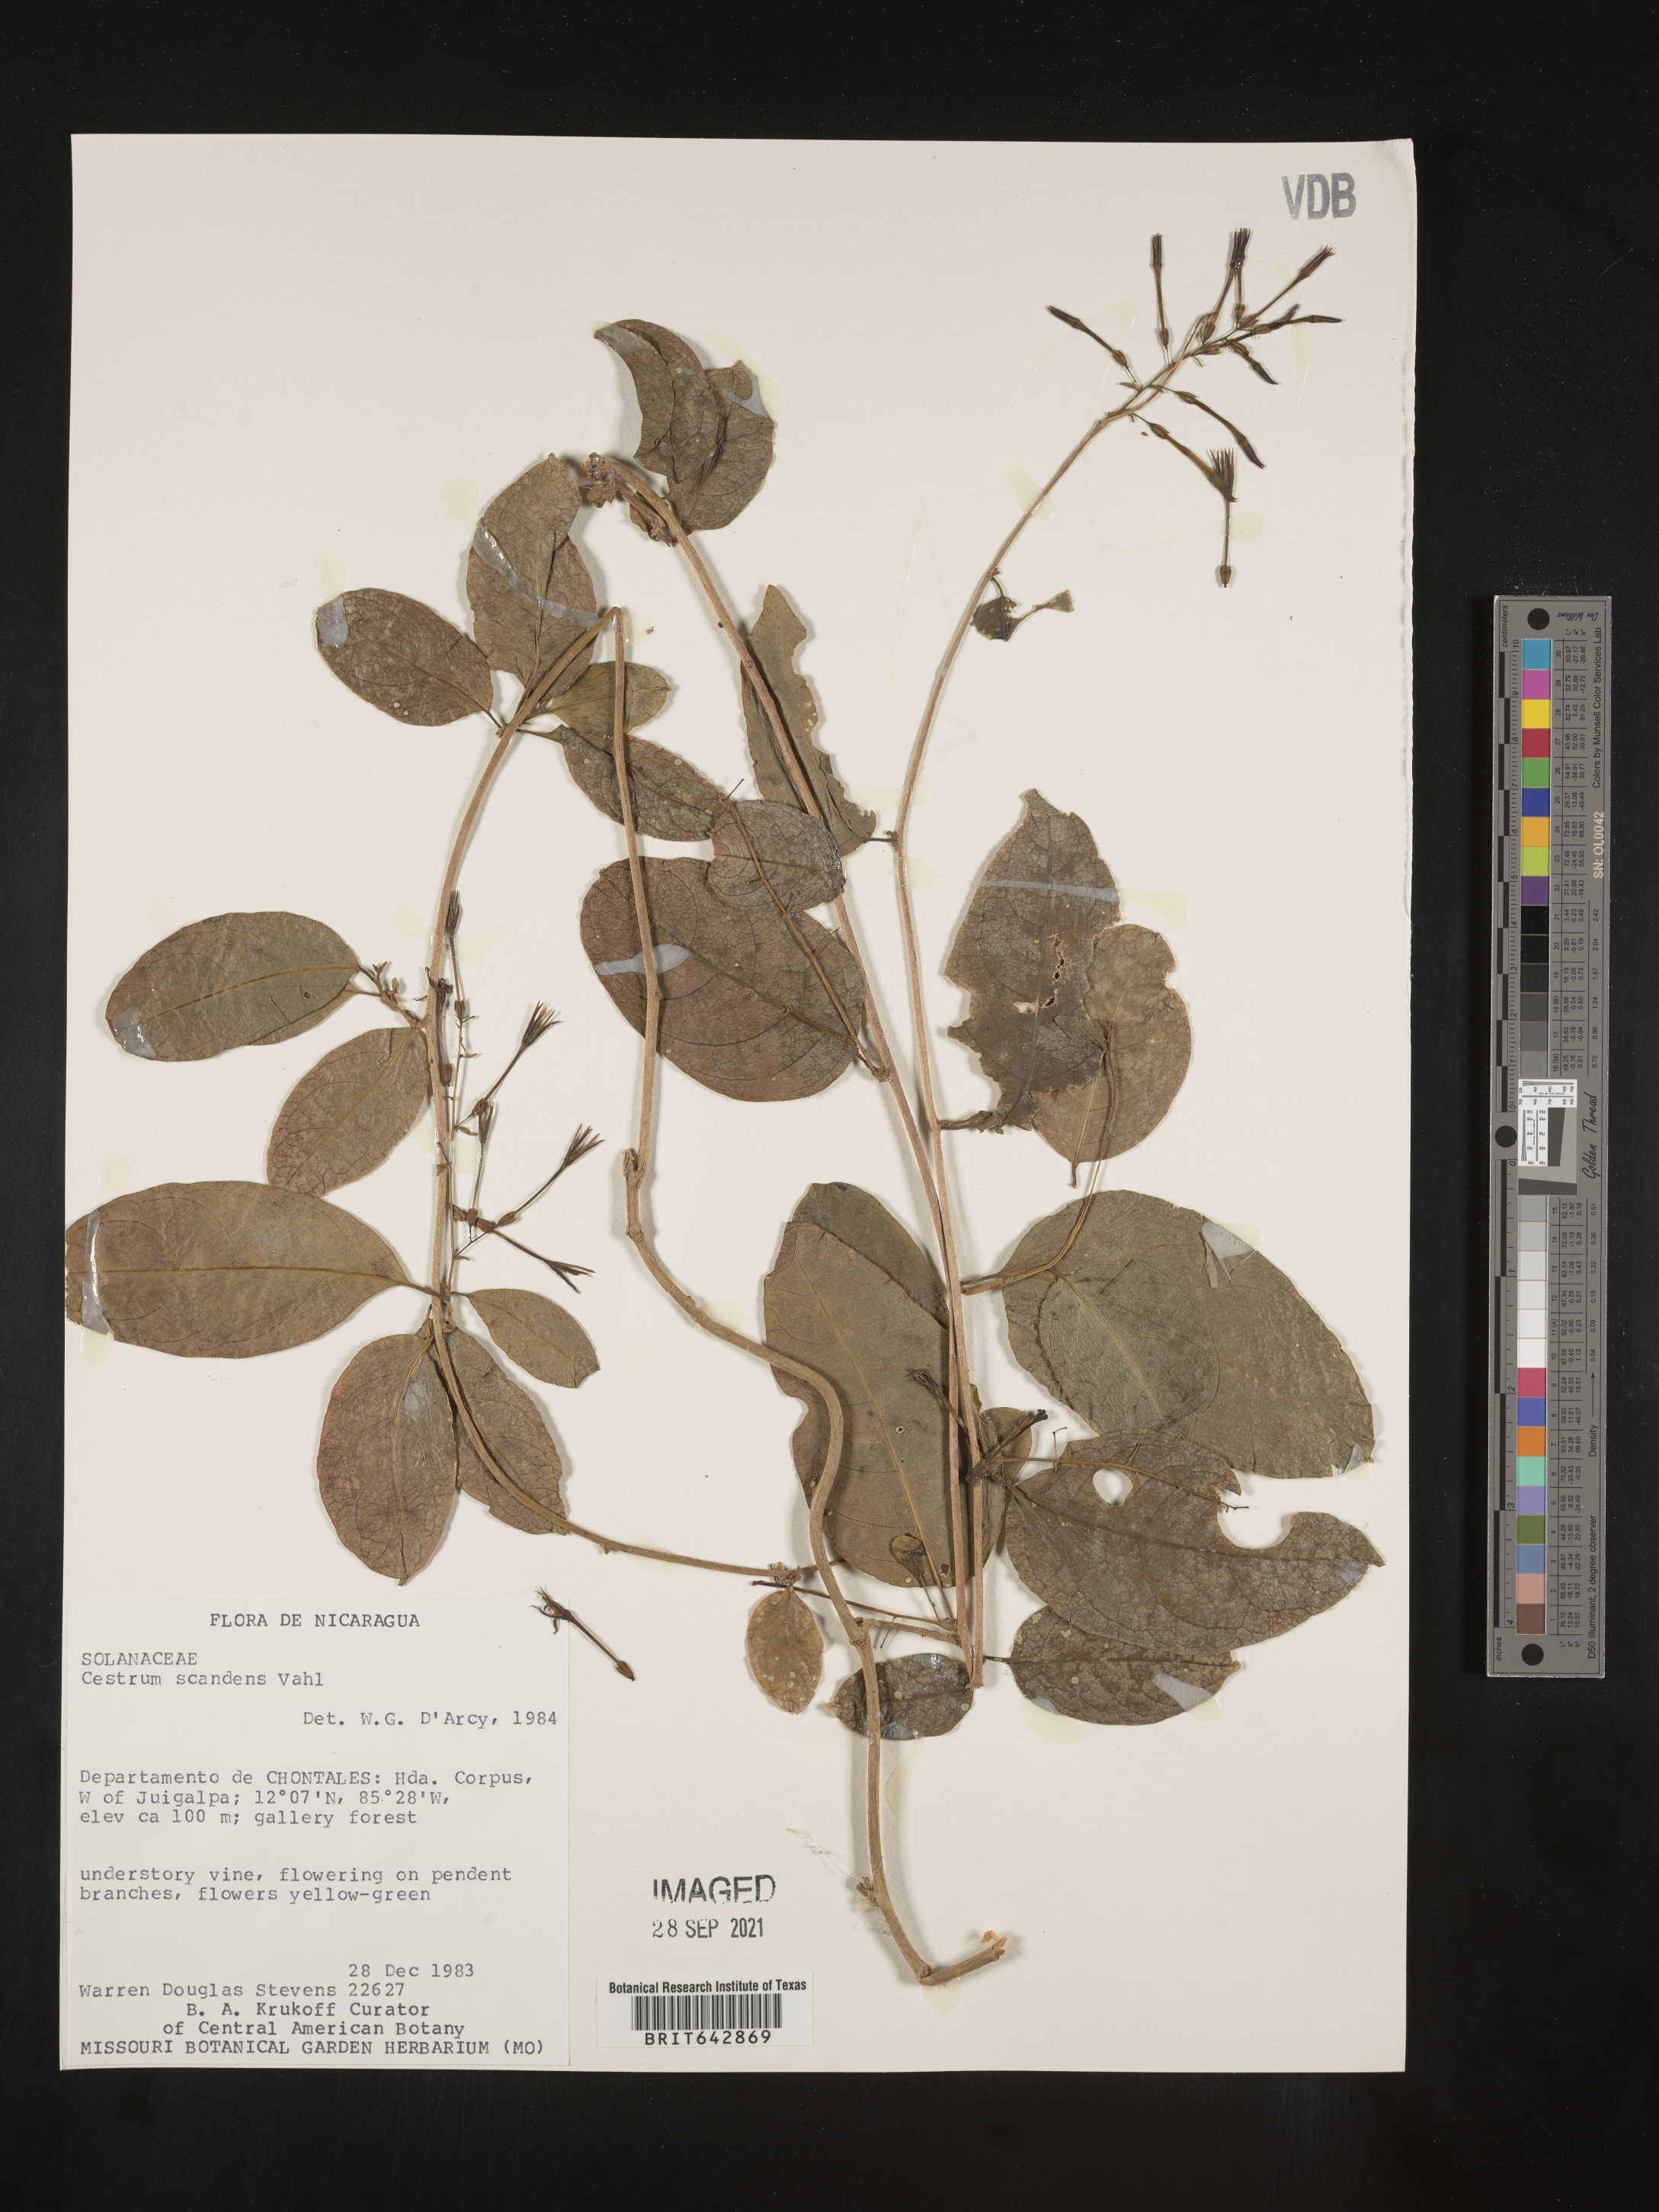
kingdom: Plantae
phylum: Tracheophyta
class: Magnoliopsida
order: Solanales
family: Solanaceae
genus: Cestrum
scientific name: Cestrum
